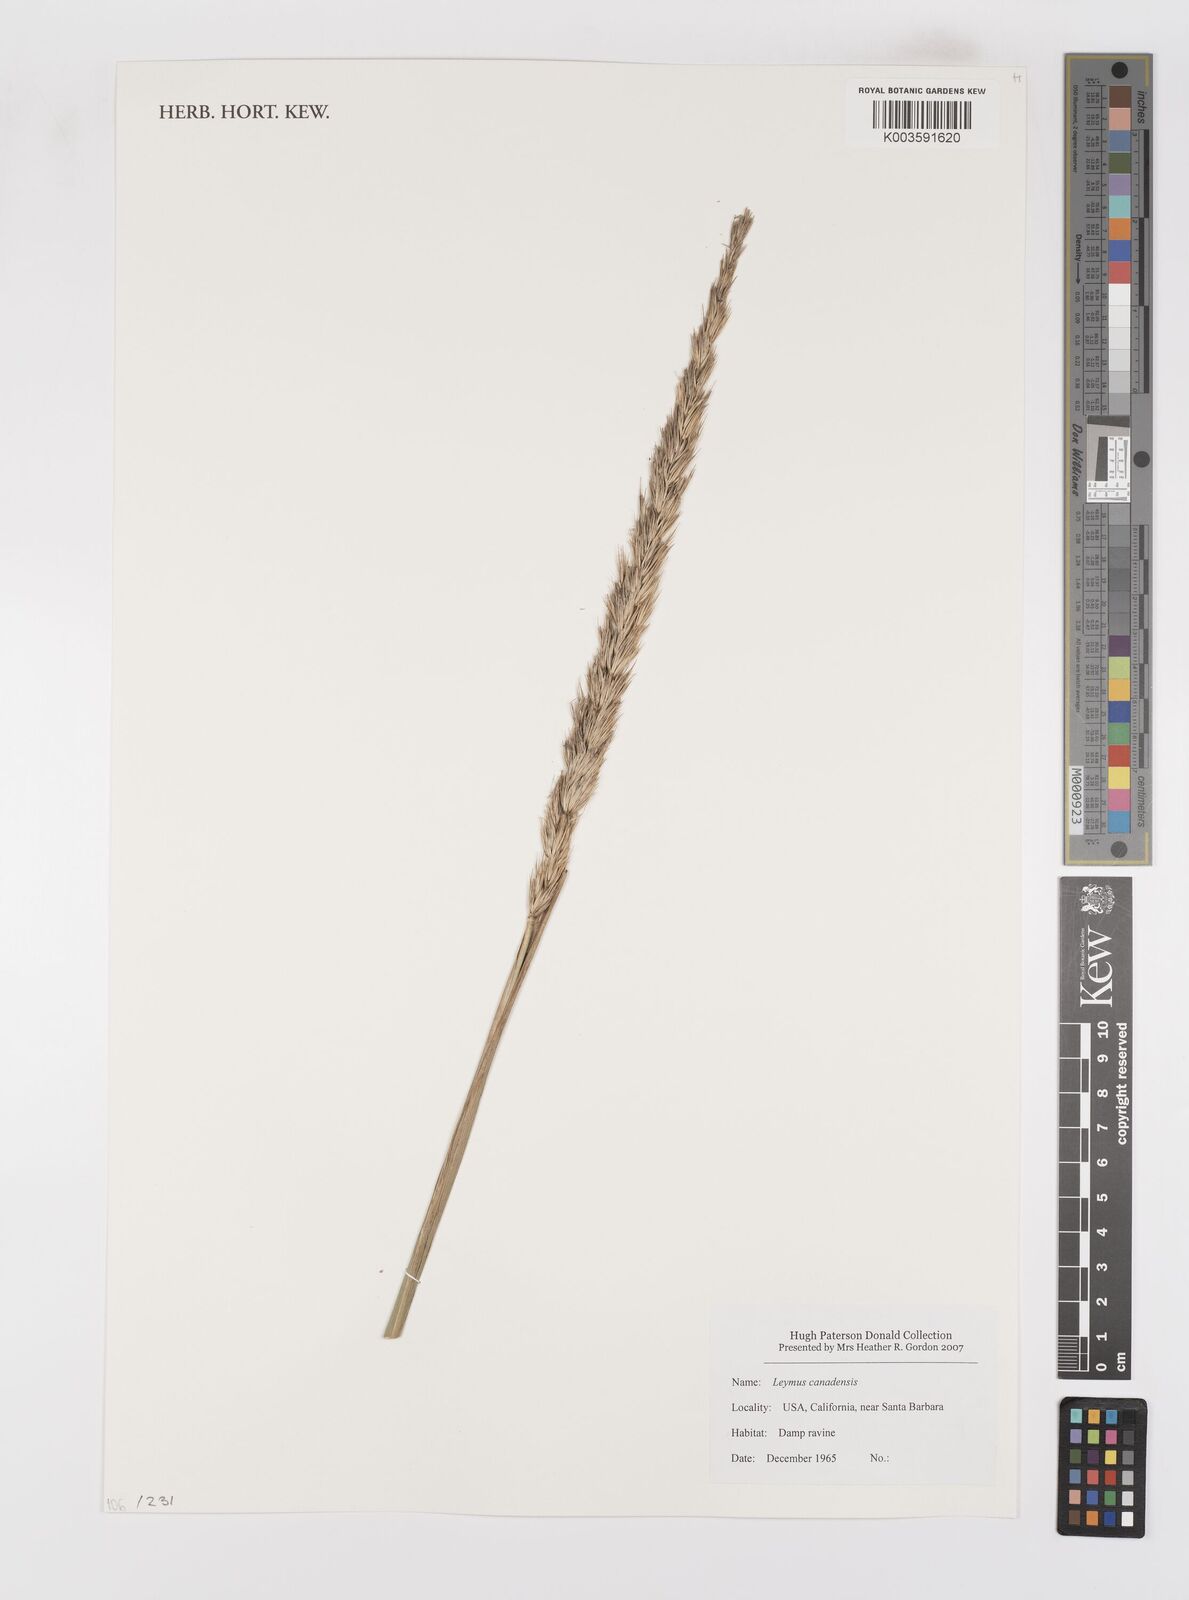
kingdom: Plantae
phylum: Tracheophyta
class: Liliopsida
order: Poales
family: Poaceae
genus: Leymus
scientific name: Leymus
